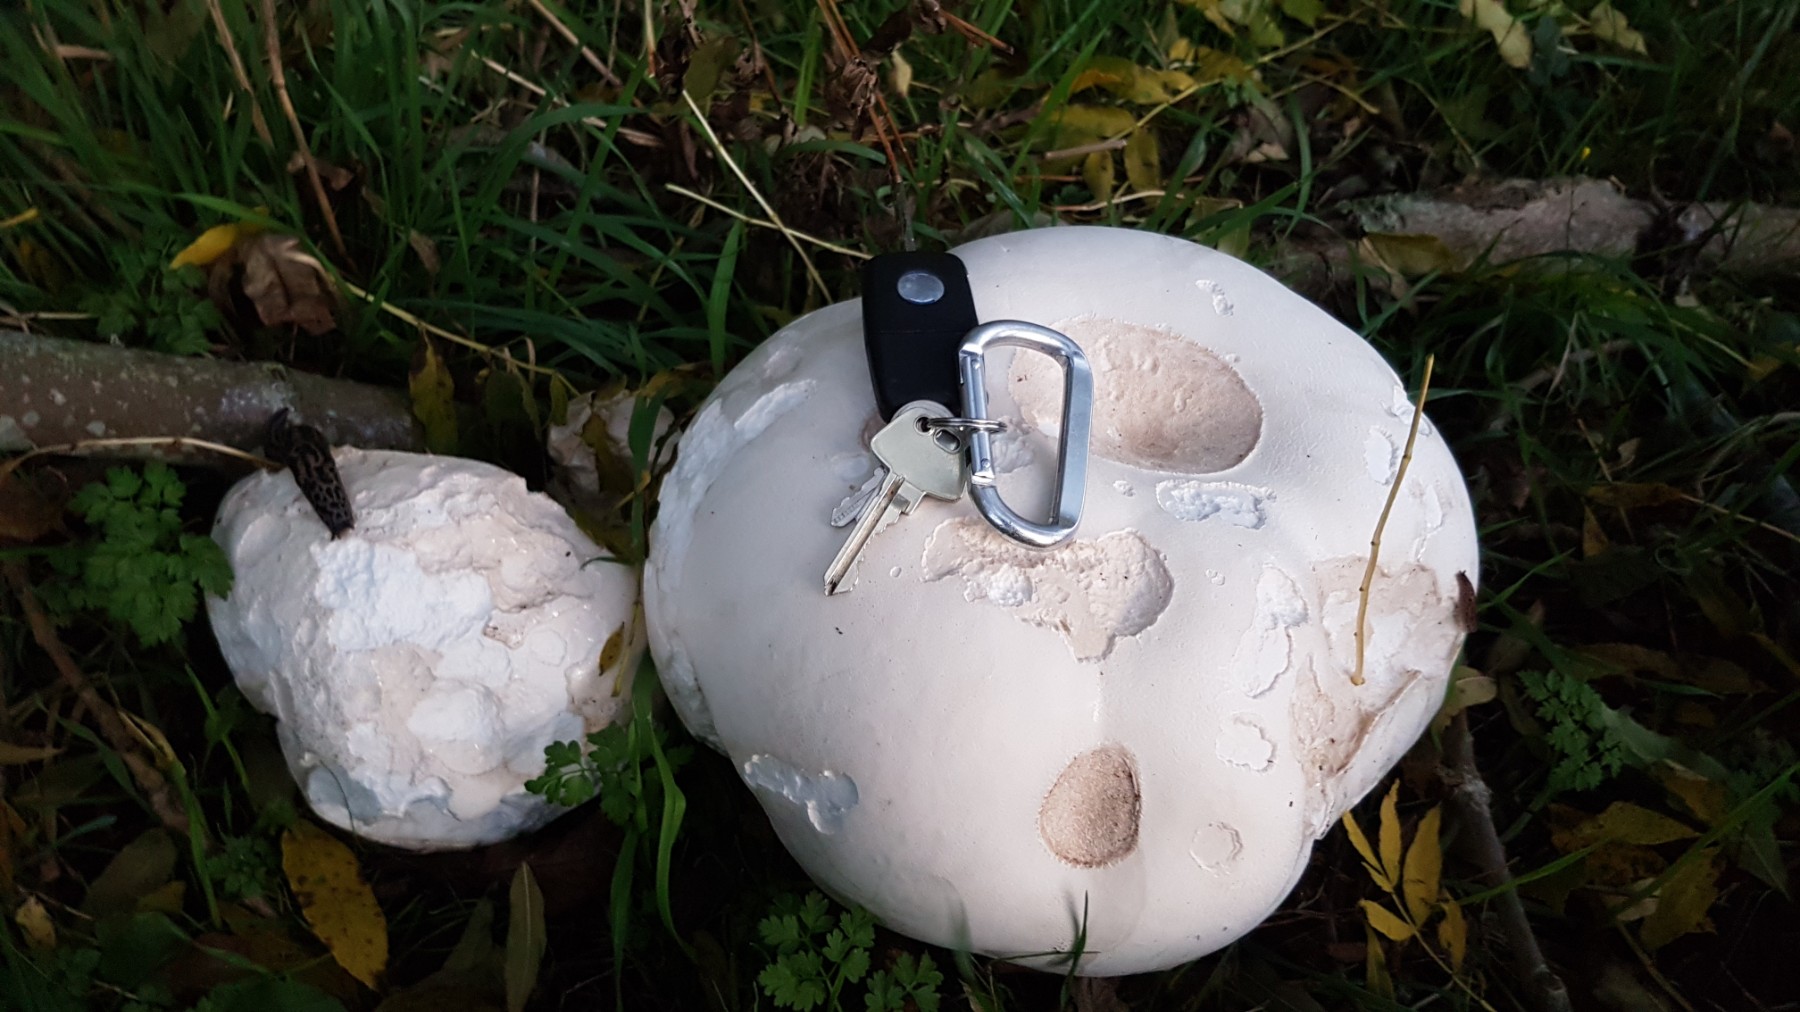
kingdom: Fungi
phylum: Basidiomycota
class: Agaricomycetes
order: Agaricales
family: Lycoperdaceae
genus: Calvatia
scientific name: Calvatia gigantea
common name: kæmpestøvbold
